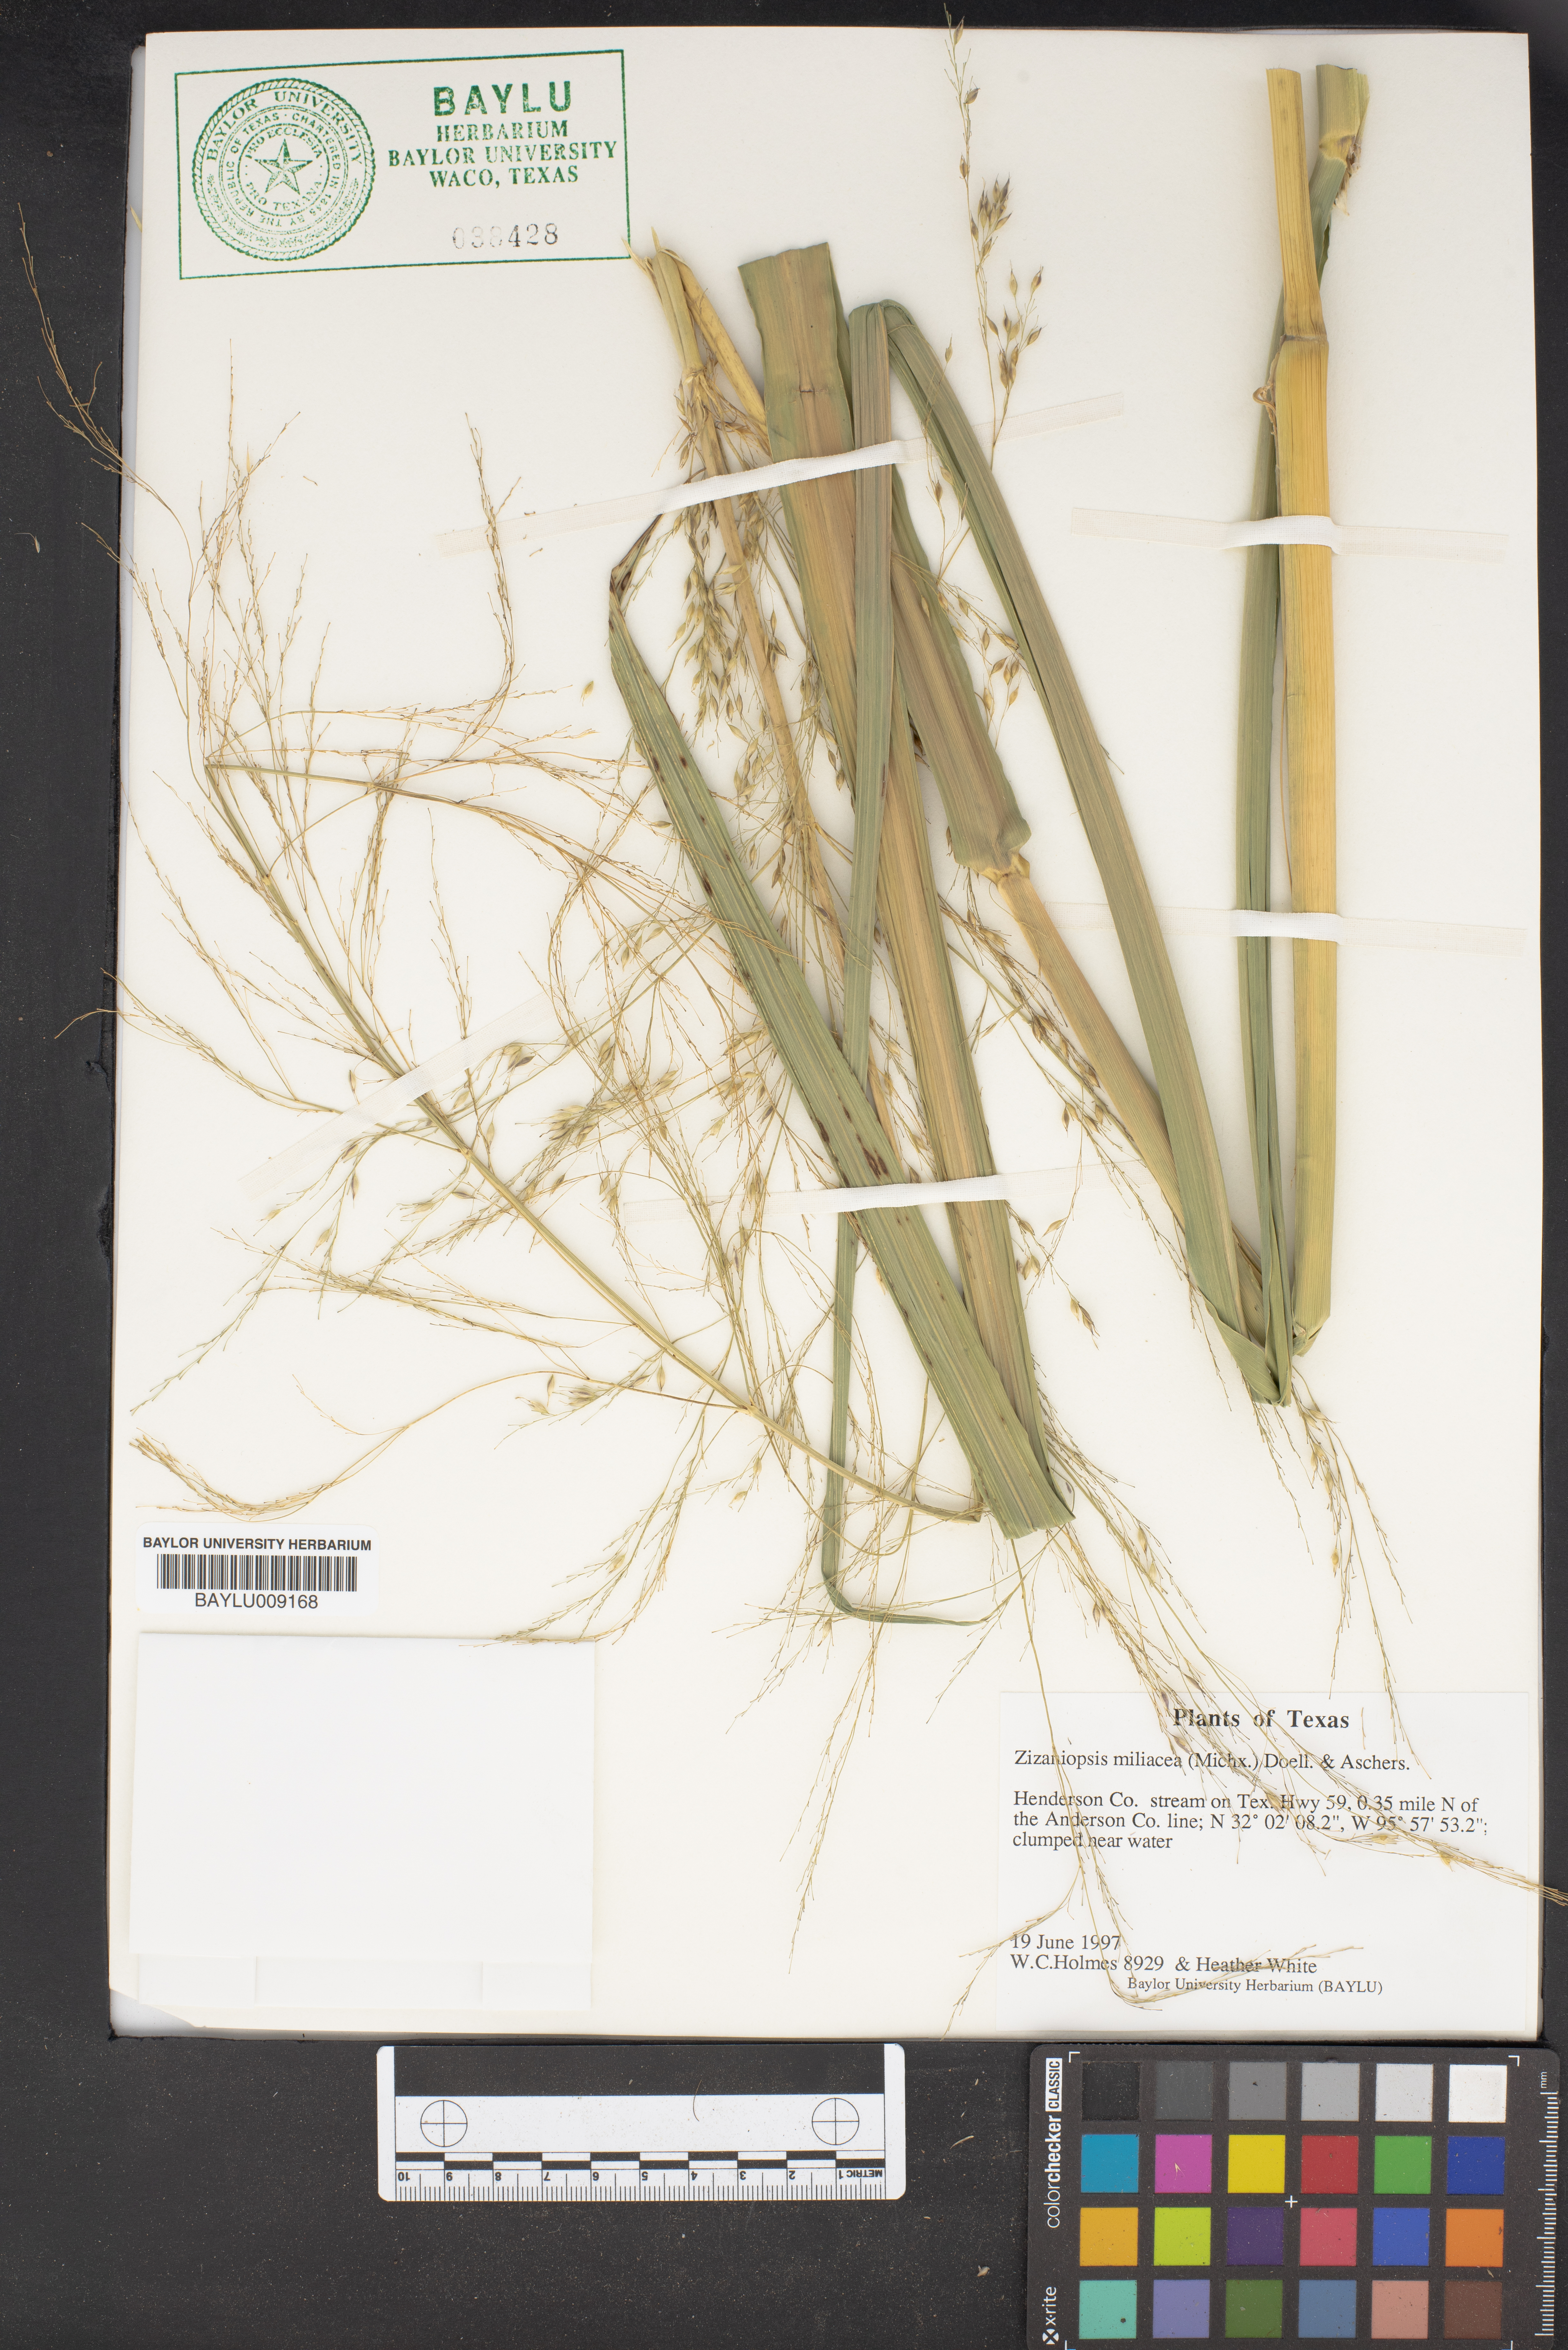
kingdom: Plantae
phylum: Tracheophyta
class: Liliopsida
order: Poales
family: Poaceae
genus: Zizaniopsis
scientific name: Zizaniopsis miliacea
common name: Giant-cutgrass
